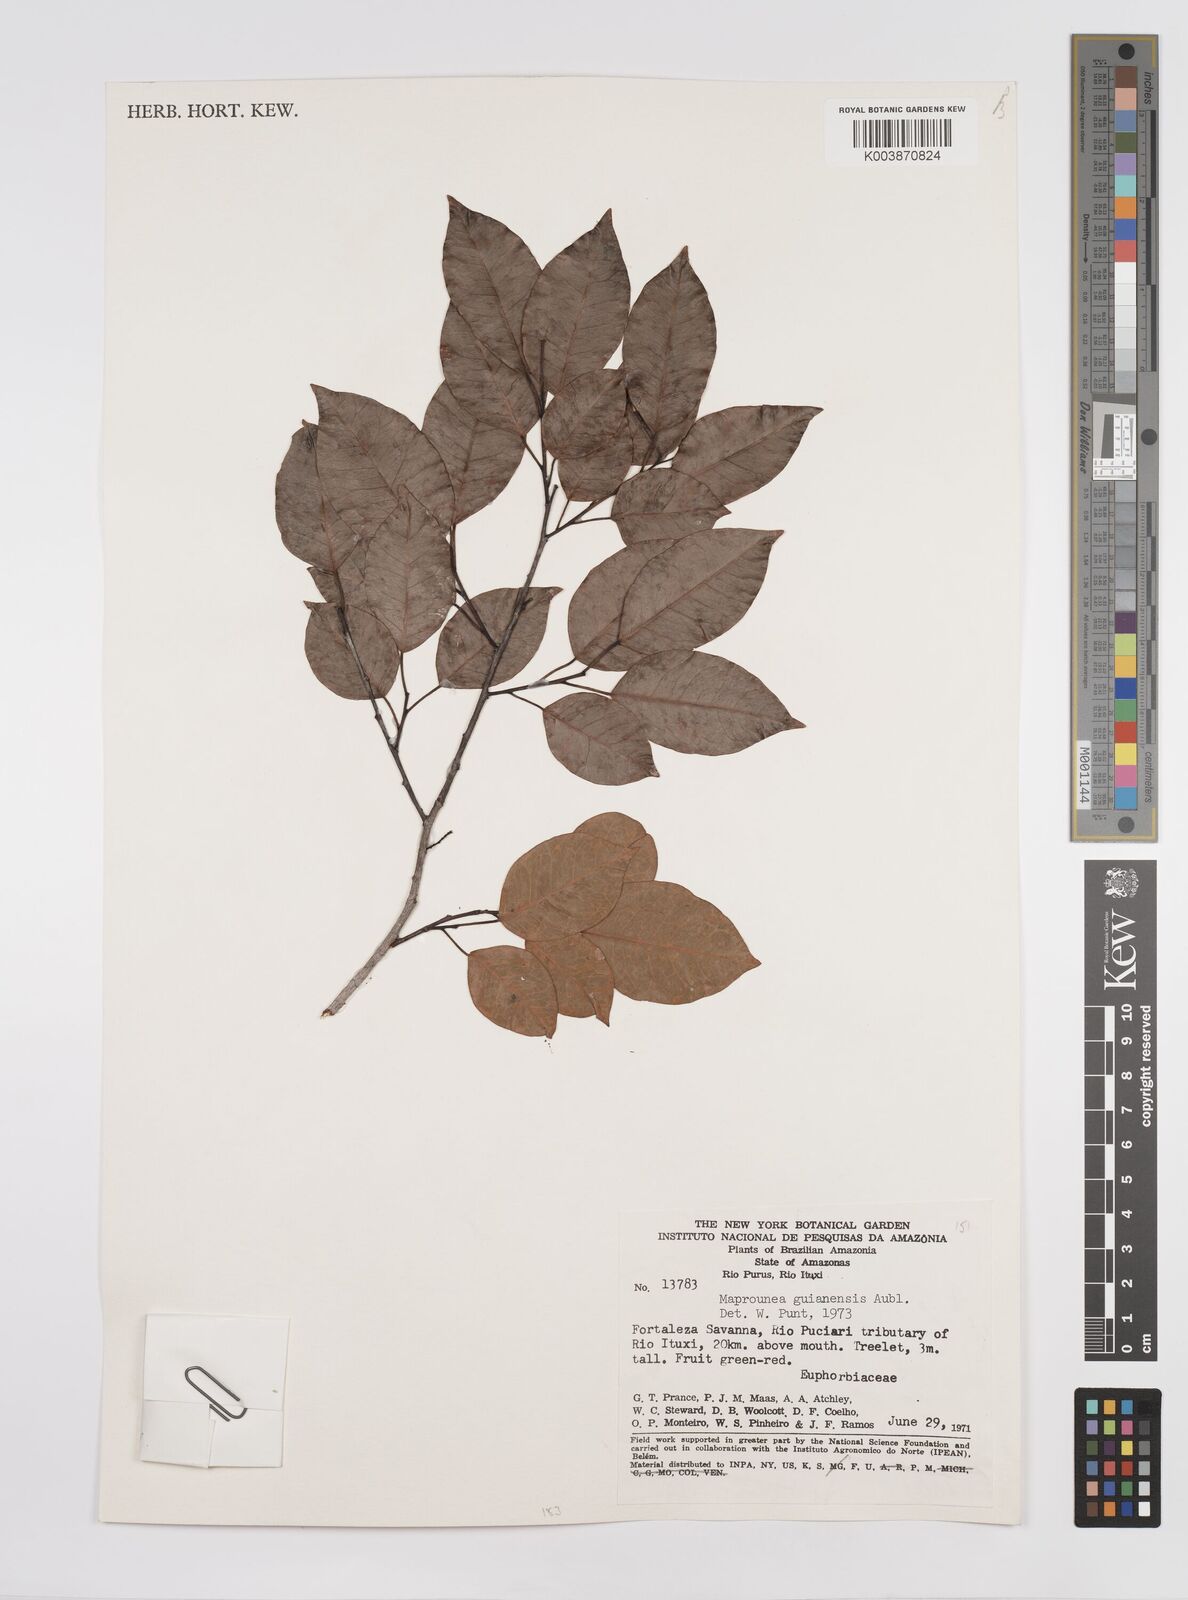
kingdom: Plantae
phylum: Tracheophyta
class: Magnoliopsida
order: Malpighiales
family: Euphorbiaceae
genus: Maprounea
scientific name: Maprounea guianensis
